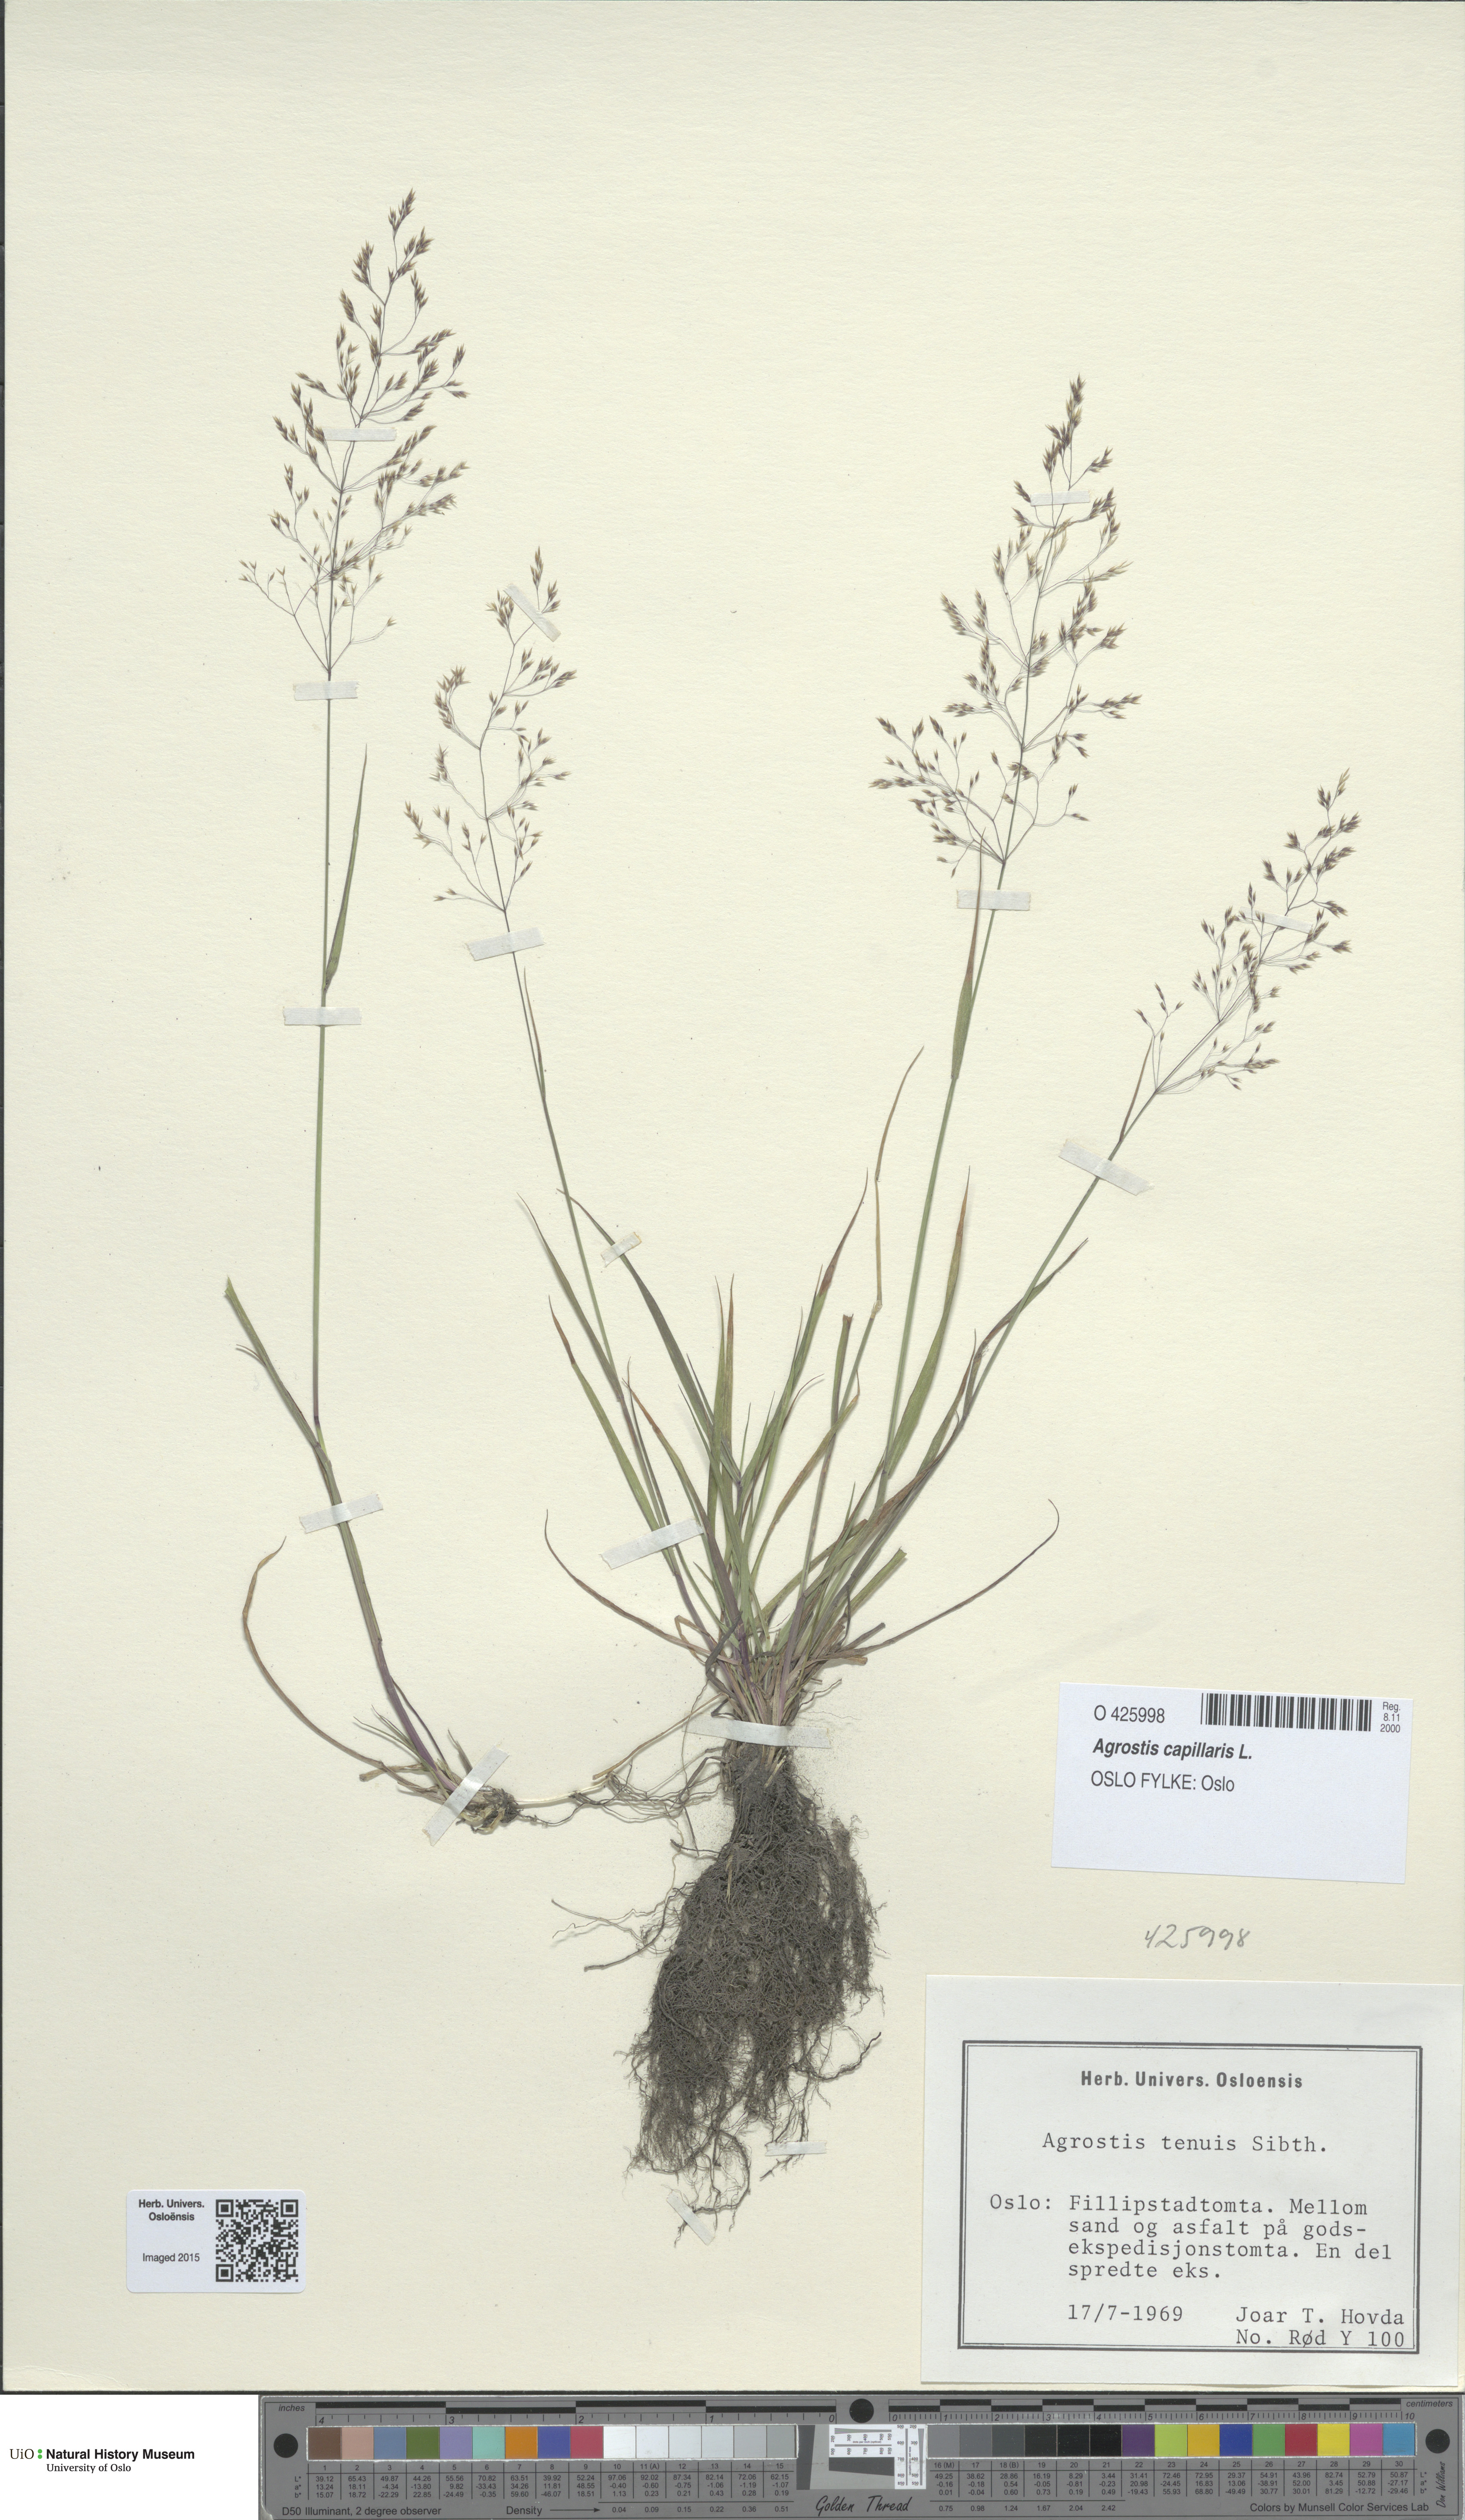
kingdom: Plantae
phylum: Tracheophyta
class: Liliopsida
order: Poales
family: Poaceae
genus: Agrostis
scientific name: Agrostis capillaris
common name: Colonial bentgrass
